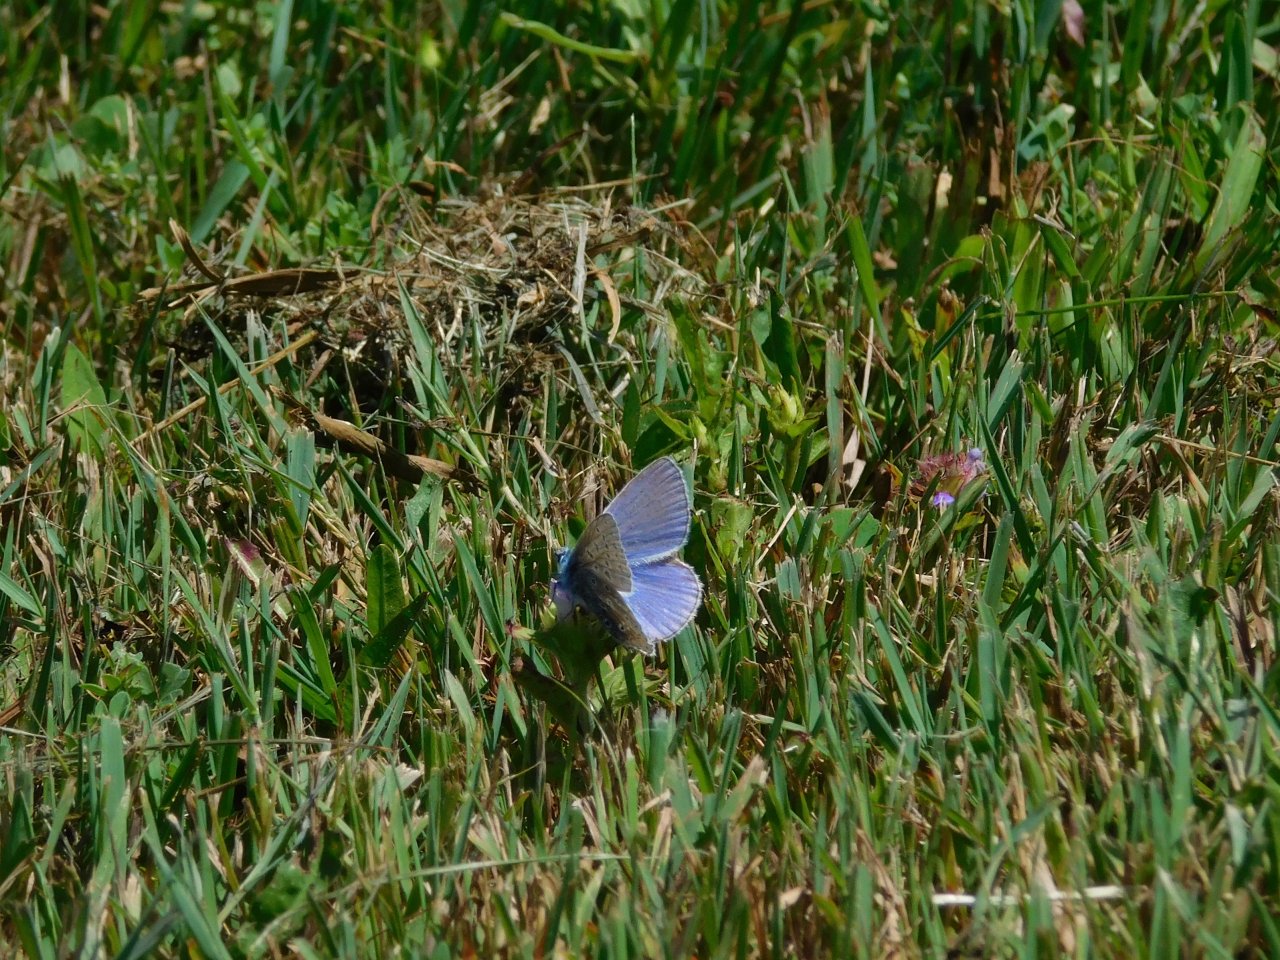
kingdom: Animalia
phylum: Arthropoda
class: Insecta
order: Lepidoptera
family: Lycaenidae
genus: Polyommatus
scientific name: Polyommatus icarus
